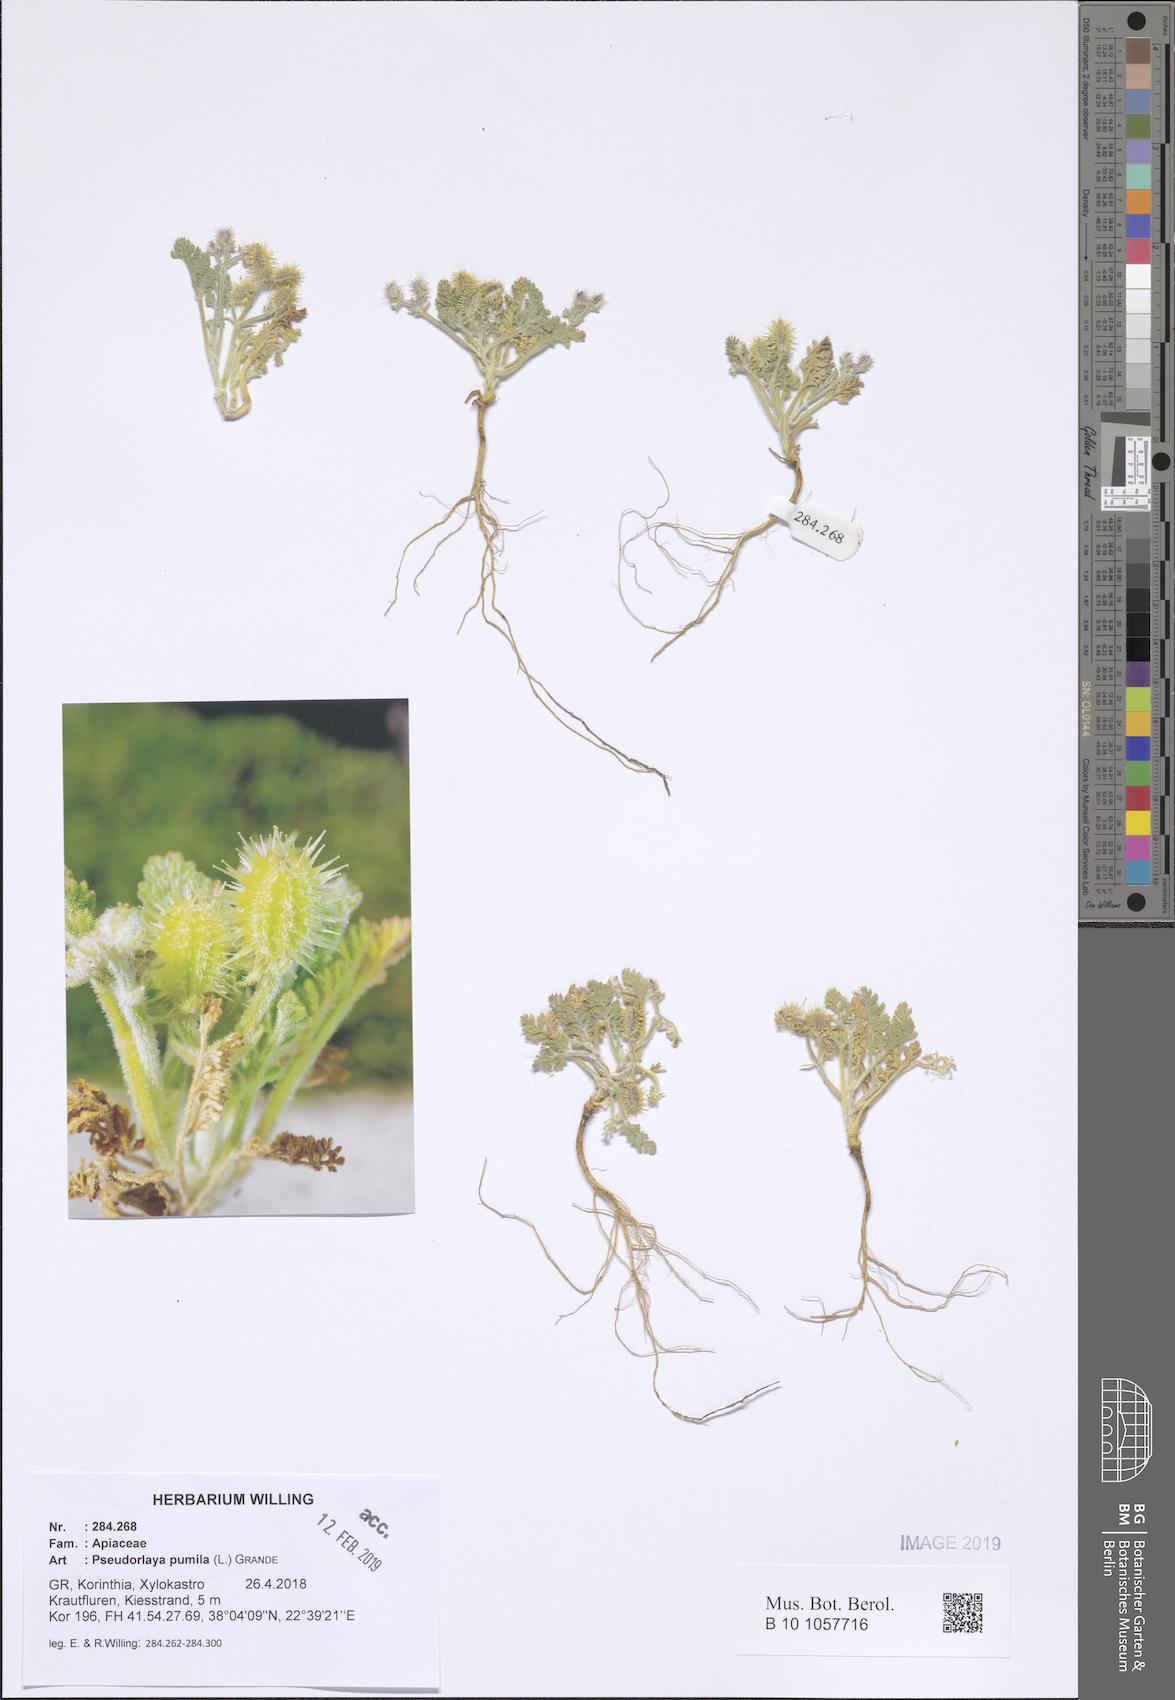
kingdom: Plantae
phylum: Tracheophyta
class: Magnoliopsida
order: Apiales
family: Apiaceae
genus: Daucus
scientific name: Daucus pumilus
